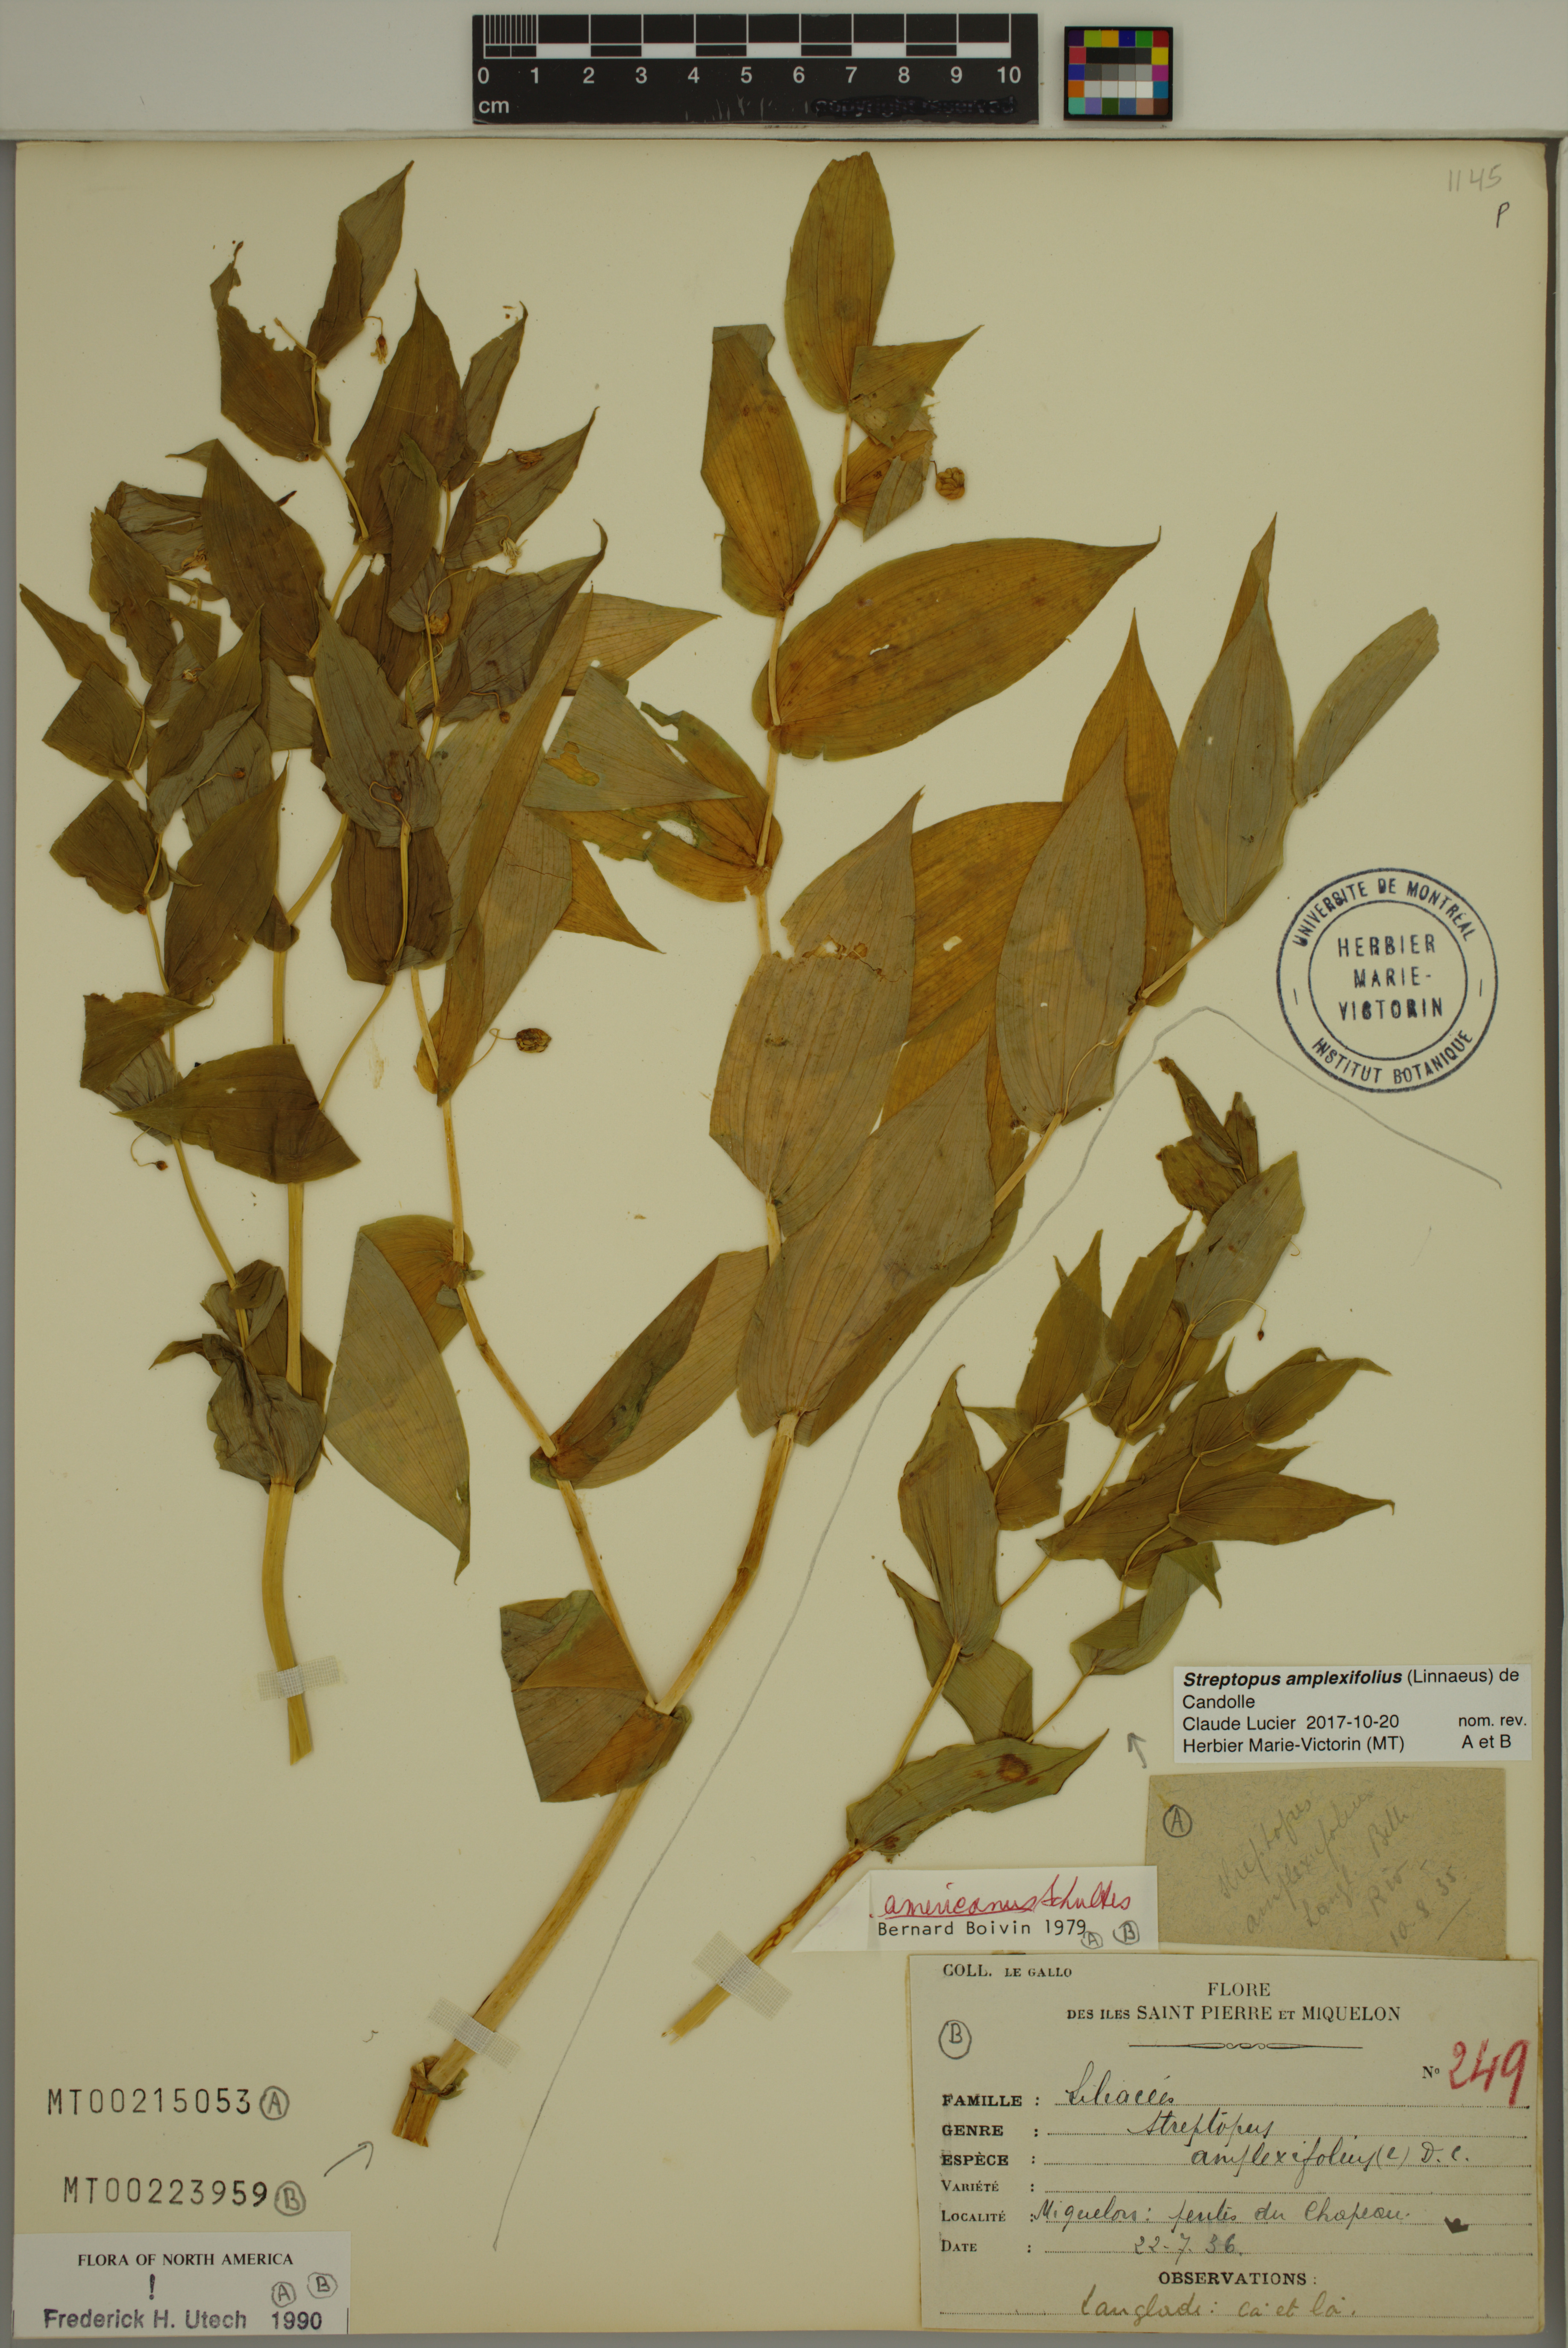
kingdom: Plantae
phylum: Tracheophyta
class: Liliopsida
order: Liliales
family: Liliaceae
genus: Streptopus
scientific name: Streptopus amplexifolius
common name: Clasp twisted stalk
